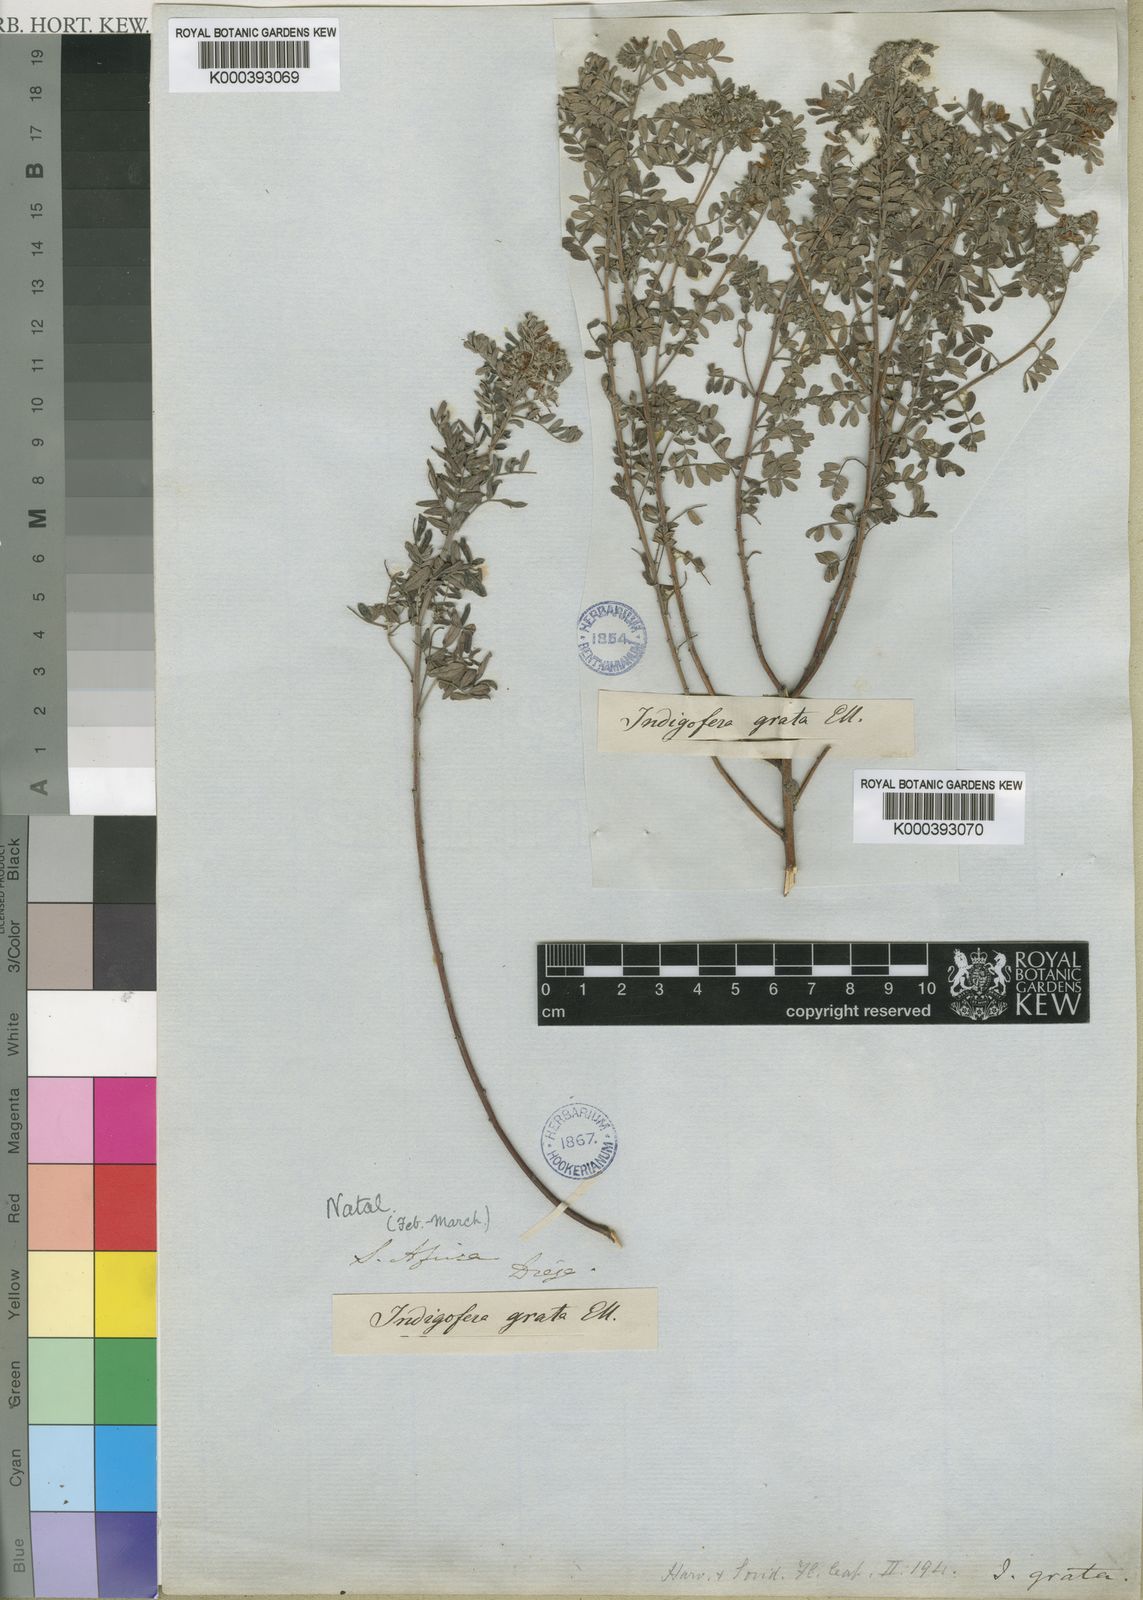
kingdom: Plantae
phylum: Tracheophyta
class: Magnoliopsida
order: Fabales
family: Fabaceae
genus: Indigofera
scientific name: Indigofera grata
